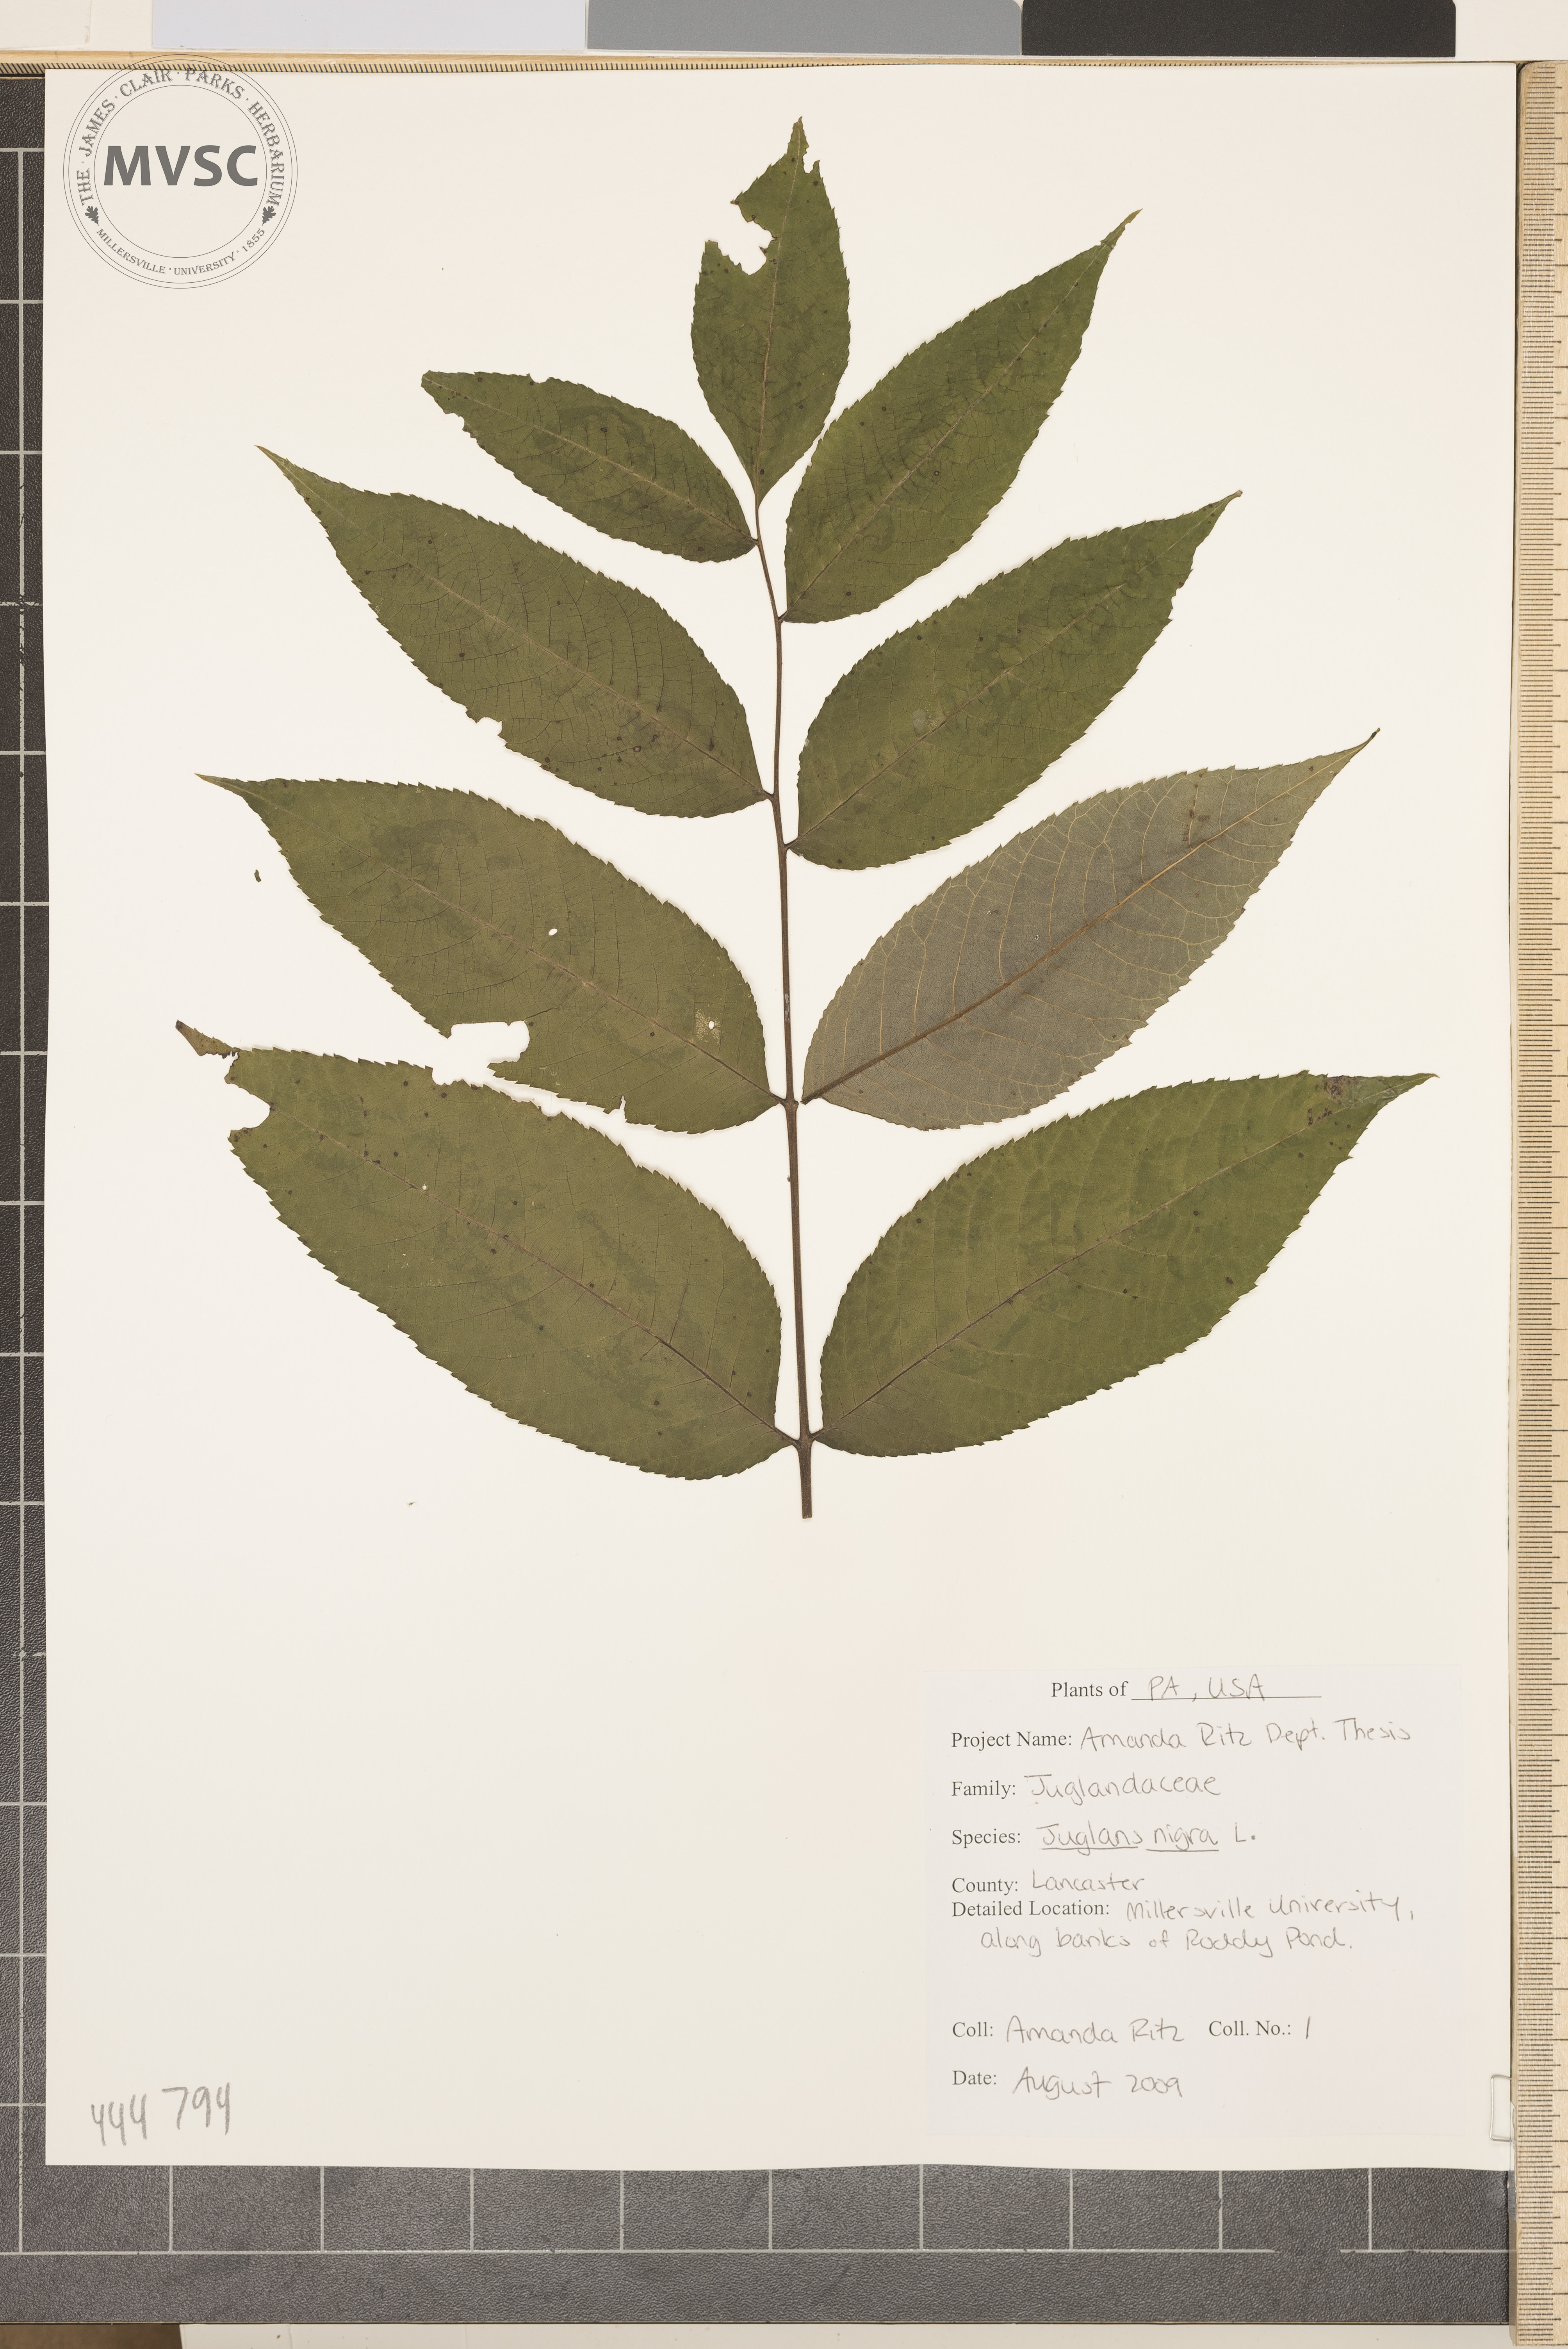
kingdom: Plantae
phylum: Tracheophyta
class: Magnoliopsida
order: Fagales
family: Juglandaceae
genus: Juglans
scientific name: Juglans nigra
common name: Black walnut
